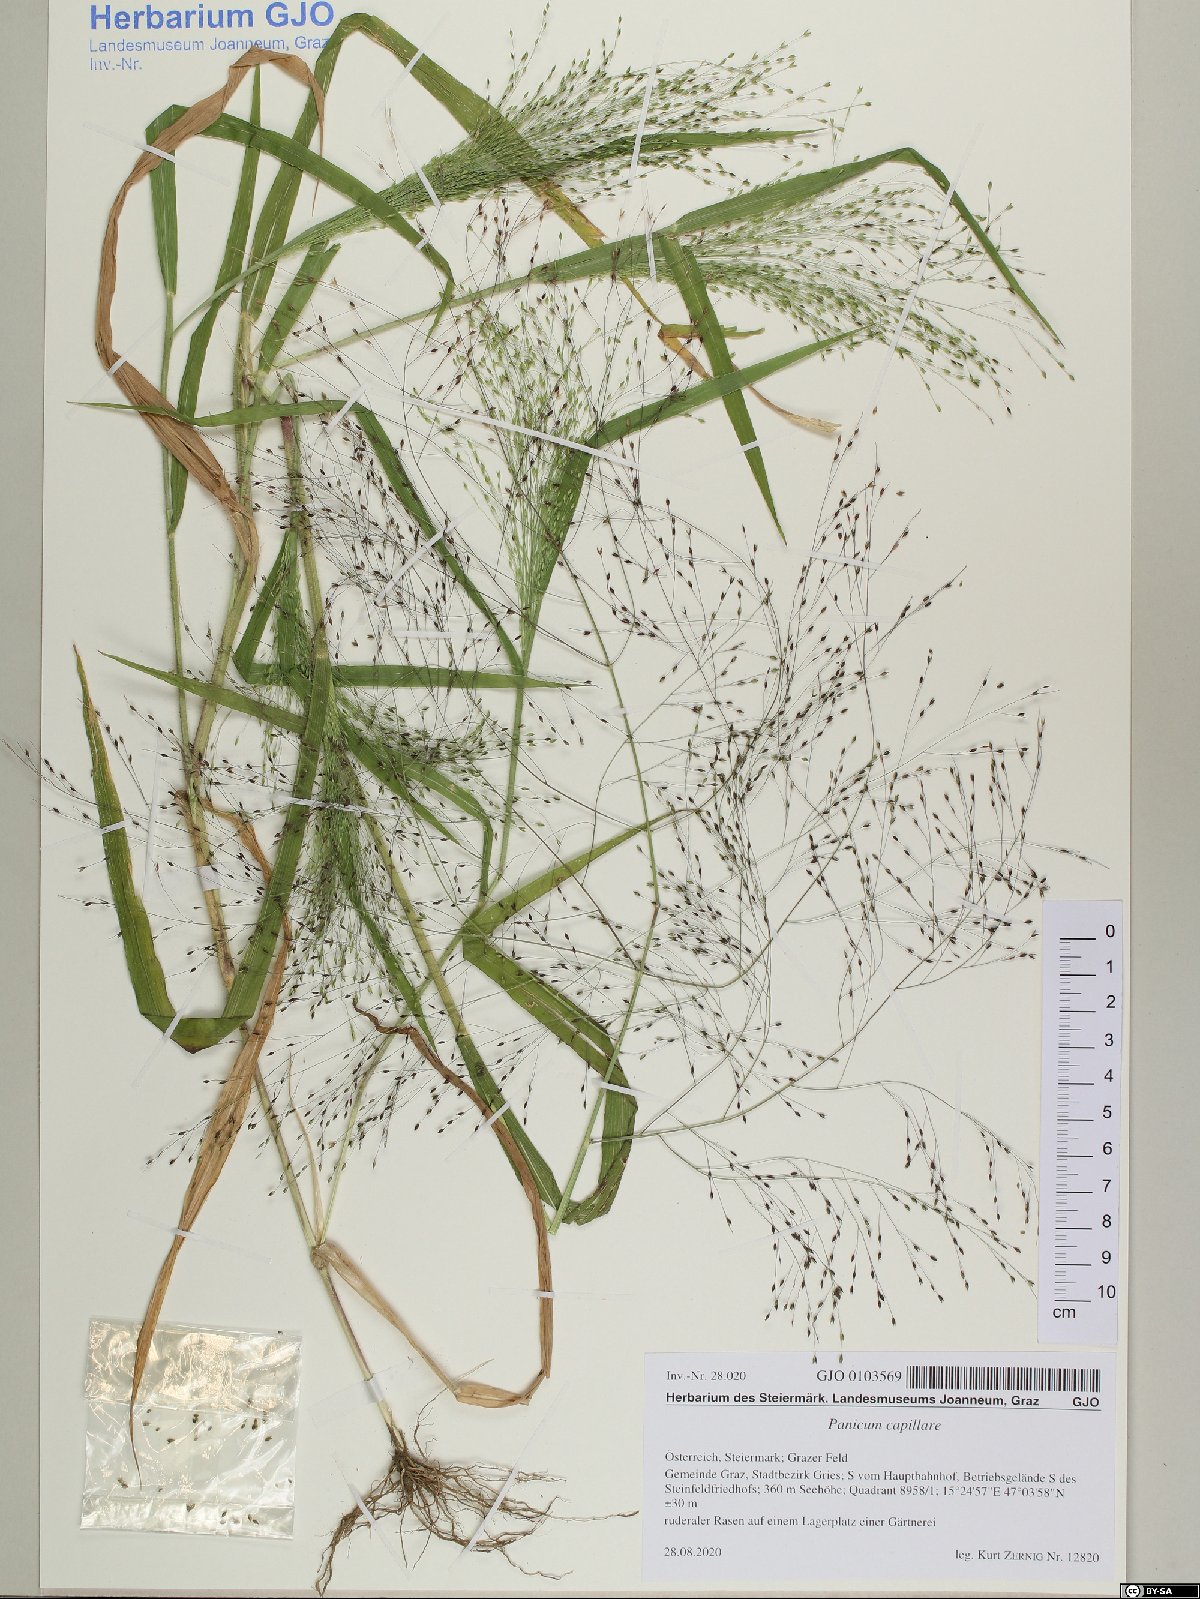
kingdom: Plantae
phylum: Tracheophyta
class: Liliopsida
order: Poales
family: Poaceae
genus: Panicum
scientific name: Panicum capillare
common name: Witch-grass
